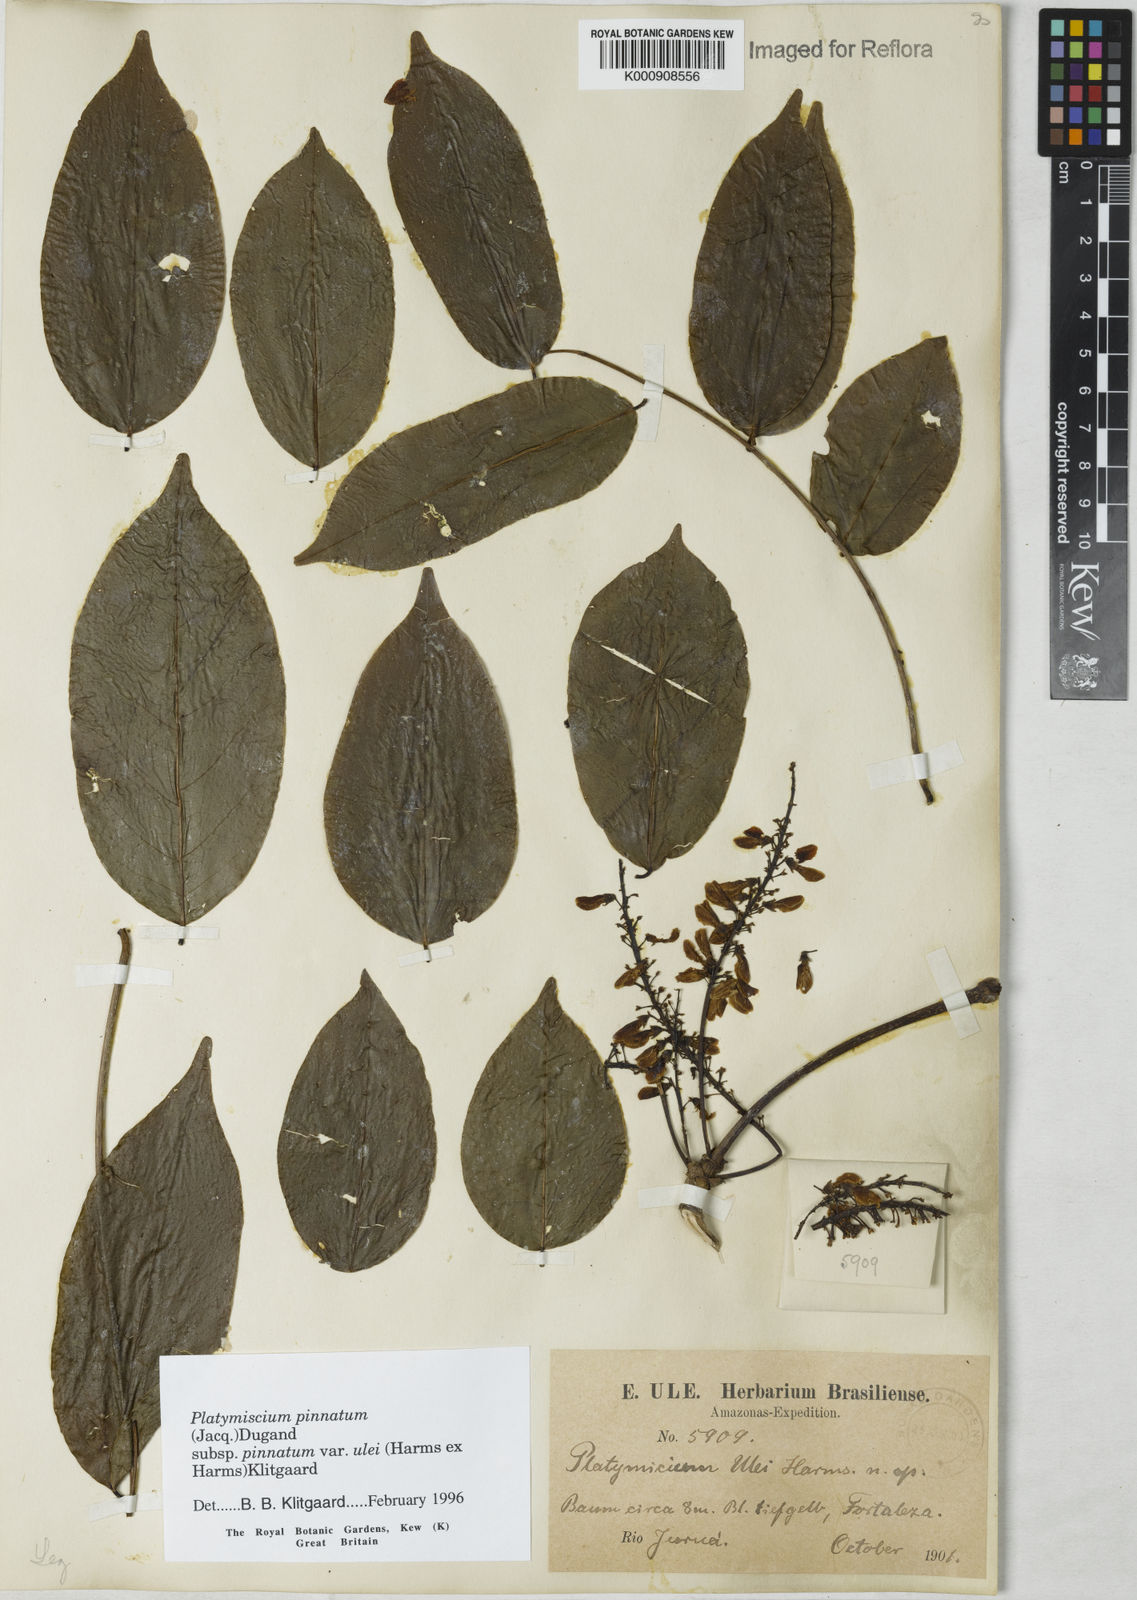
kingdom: Plantae
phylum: Tracheophyta
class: Magnoliopsida
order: Fabales
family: Fabaceae
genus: Platymiscium
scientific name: Platymiscium pinnatum
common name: Panama redwood
